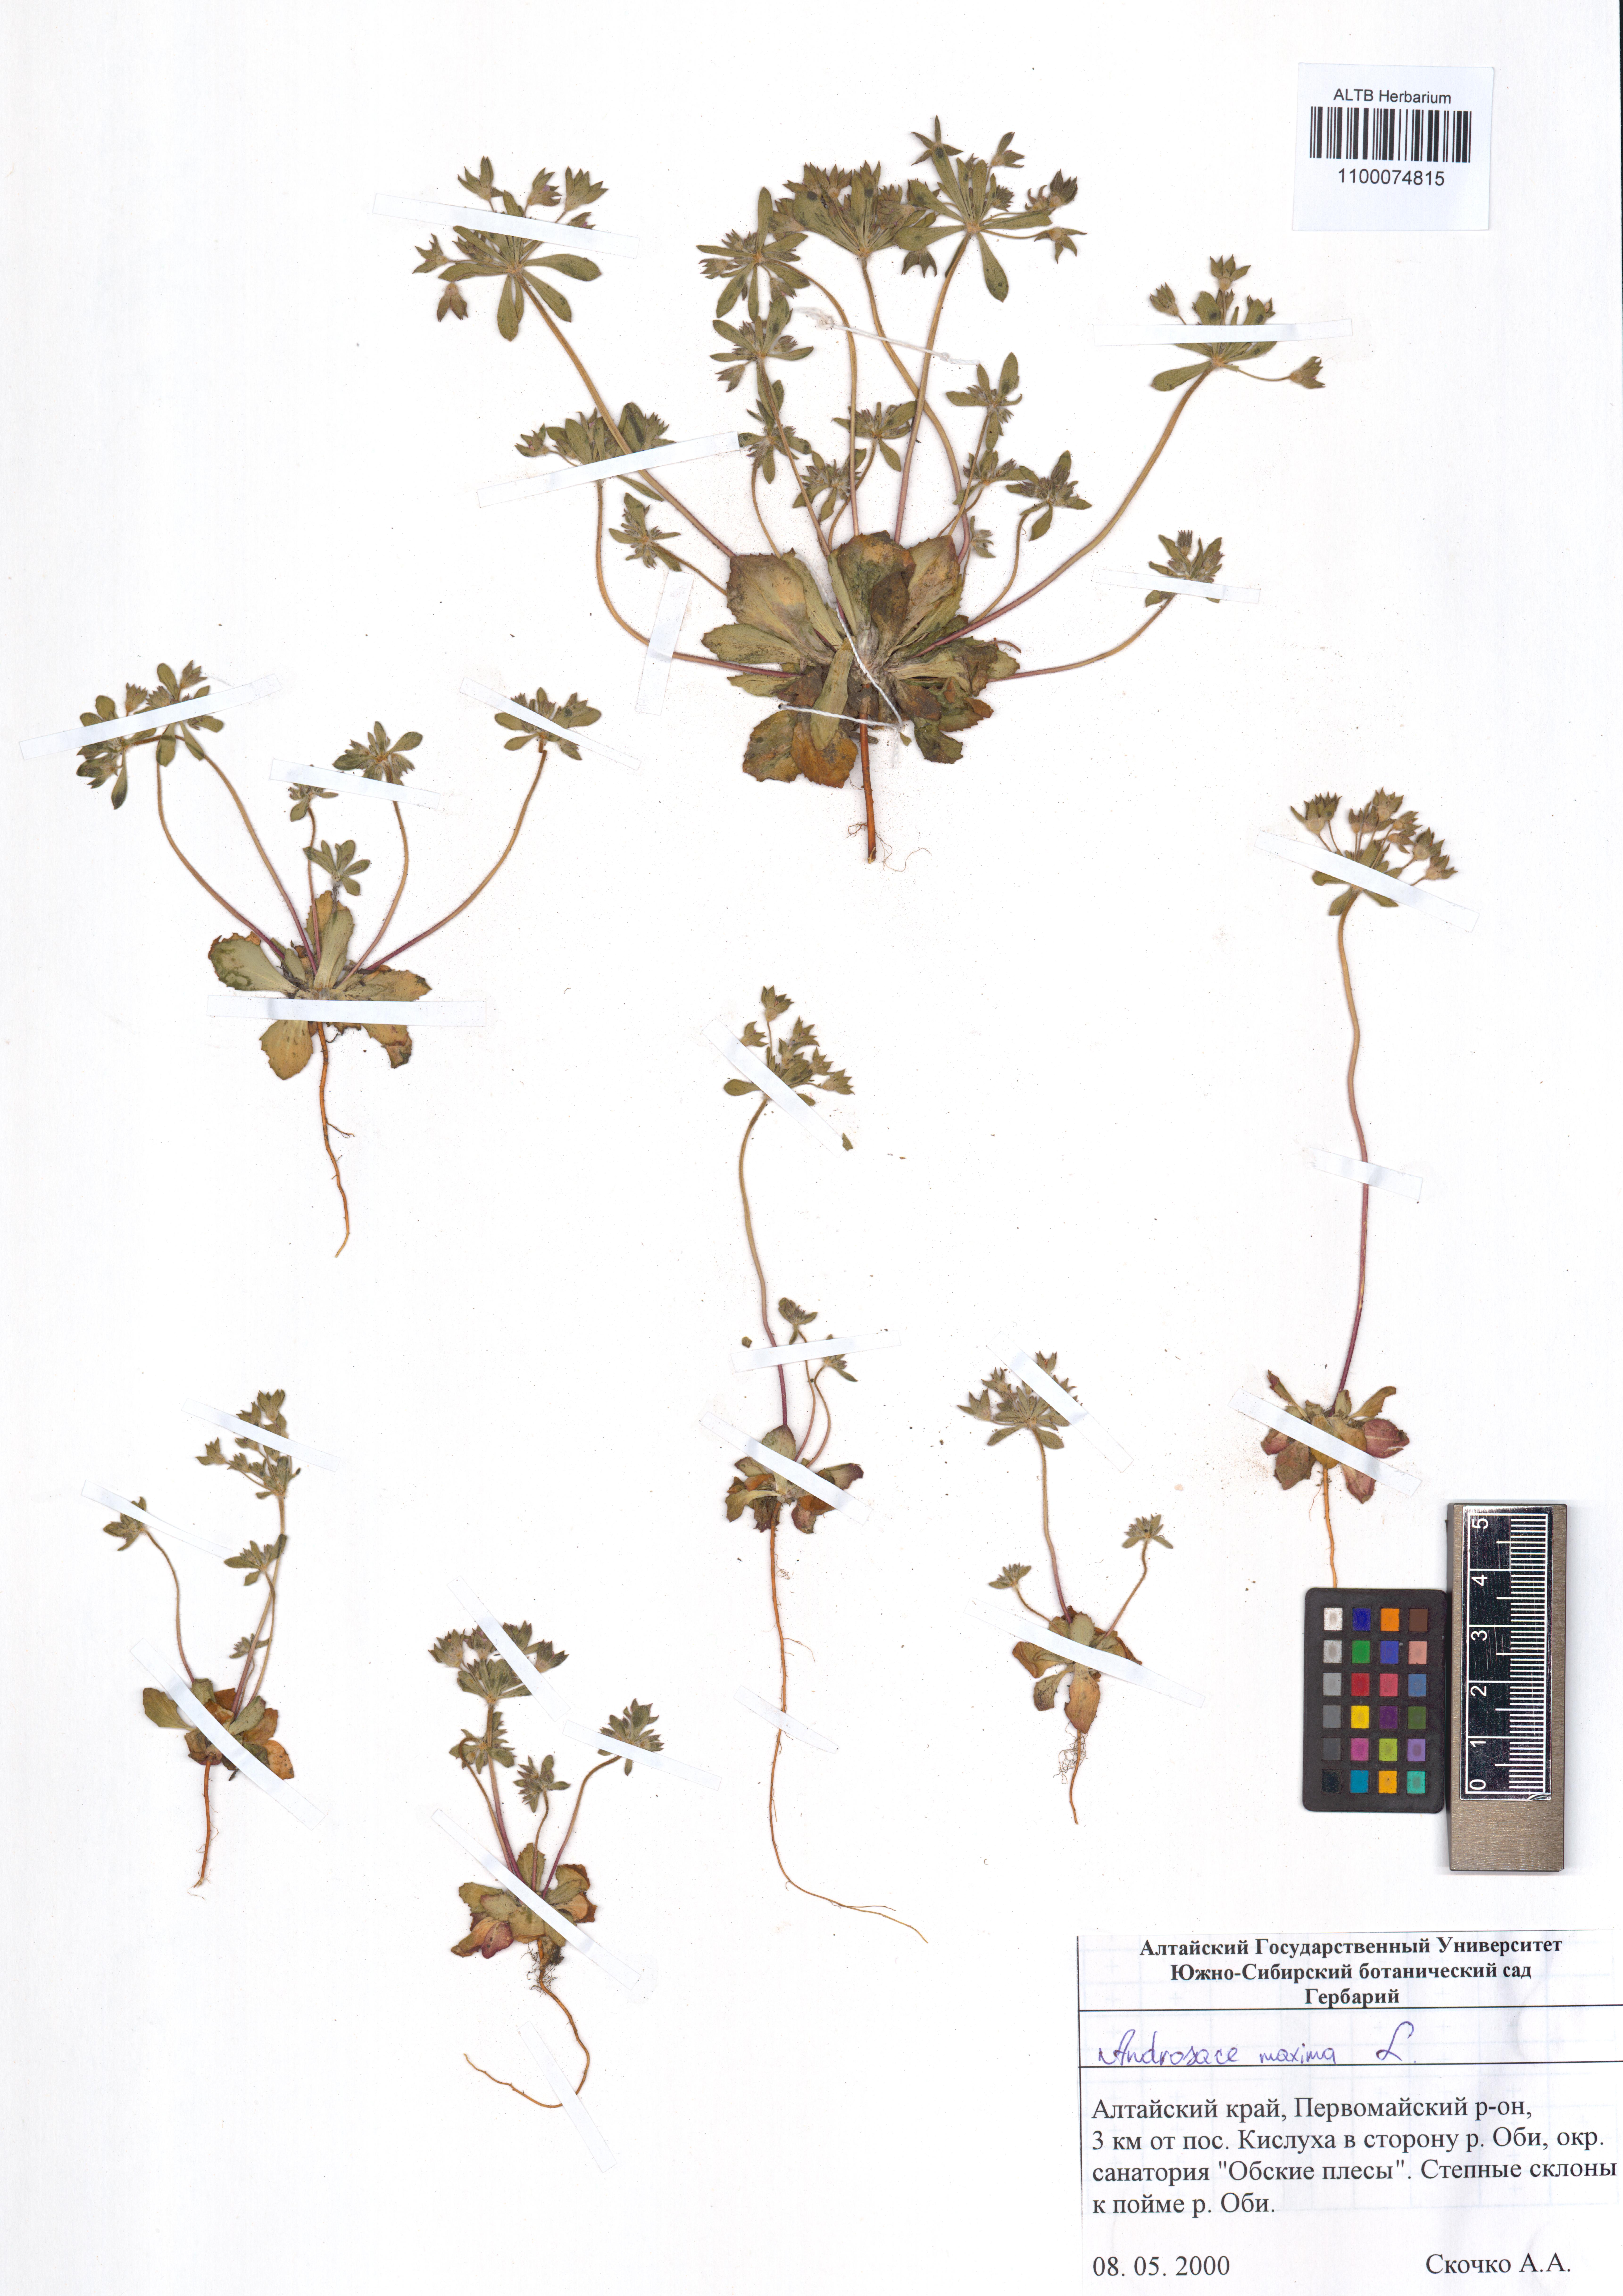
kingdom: Plantae
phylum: Tracheophyta
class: Magnoliopsida
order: Ericales
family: Primulaceae
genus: Androsace
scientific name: Androsace maxima
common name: Annual androsace
